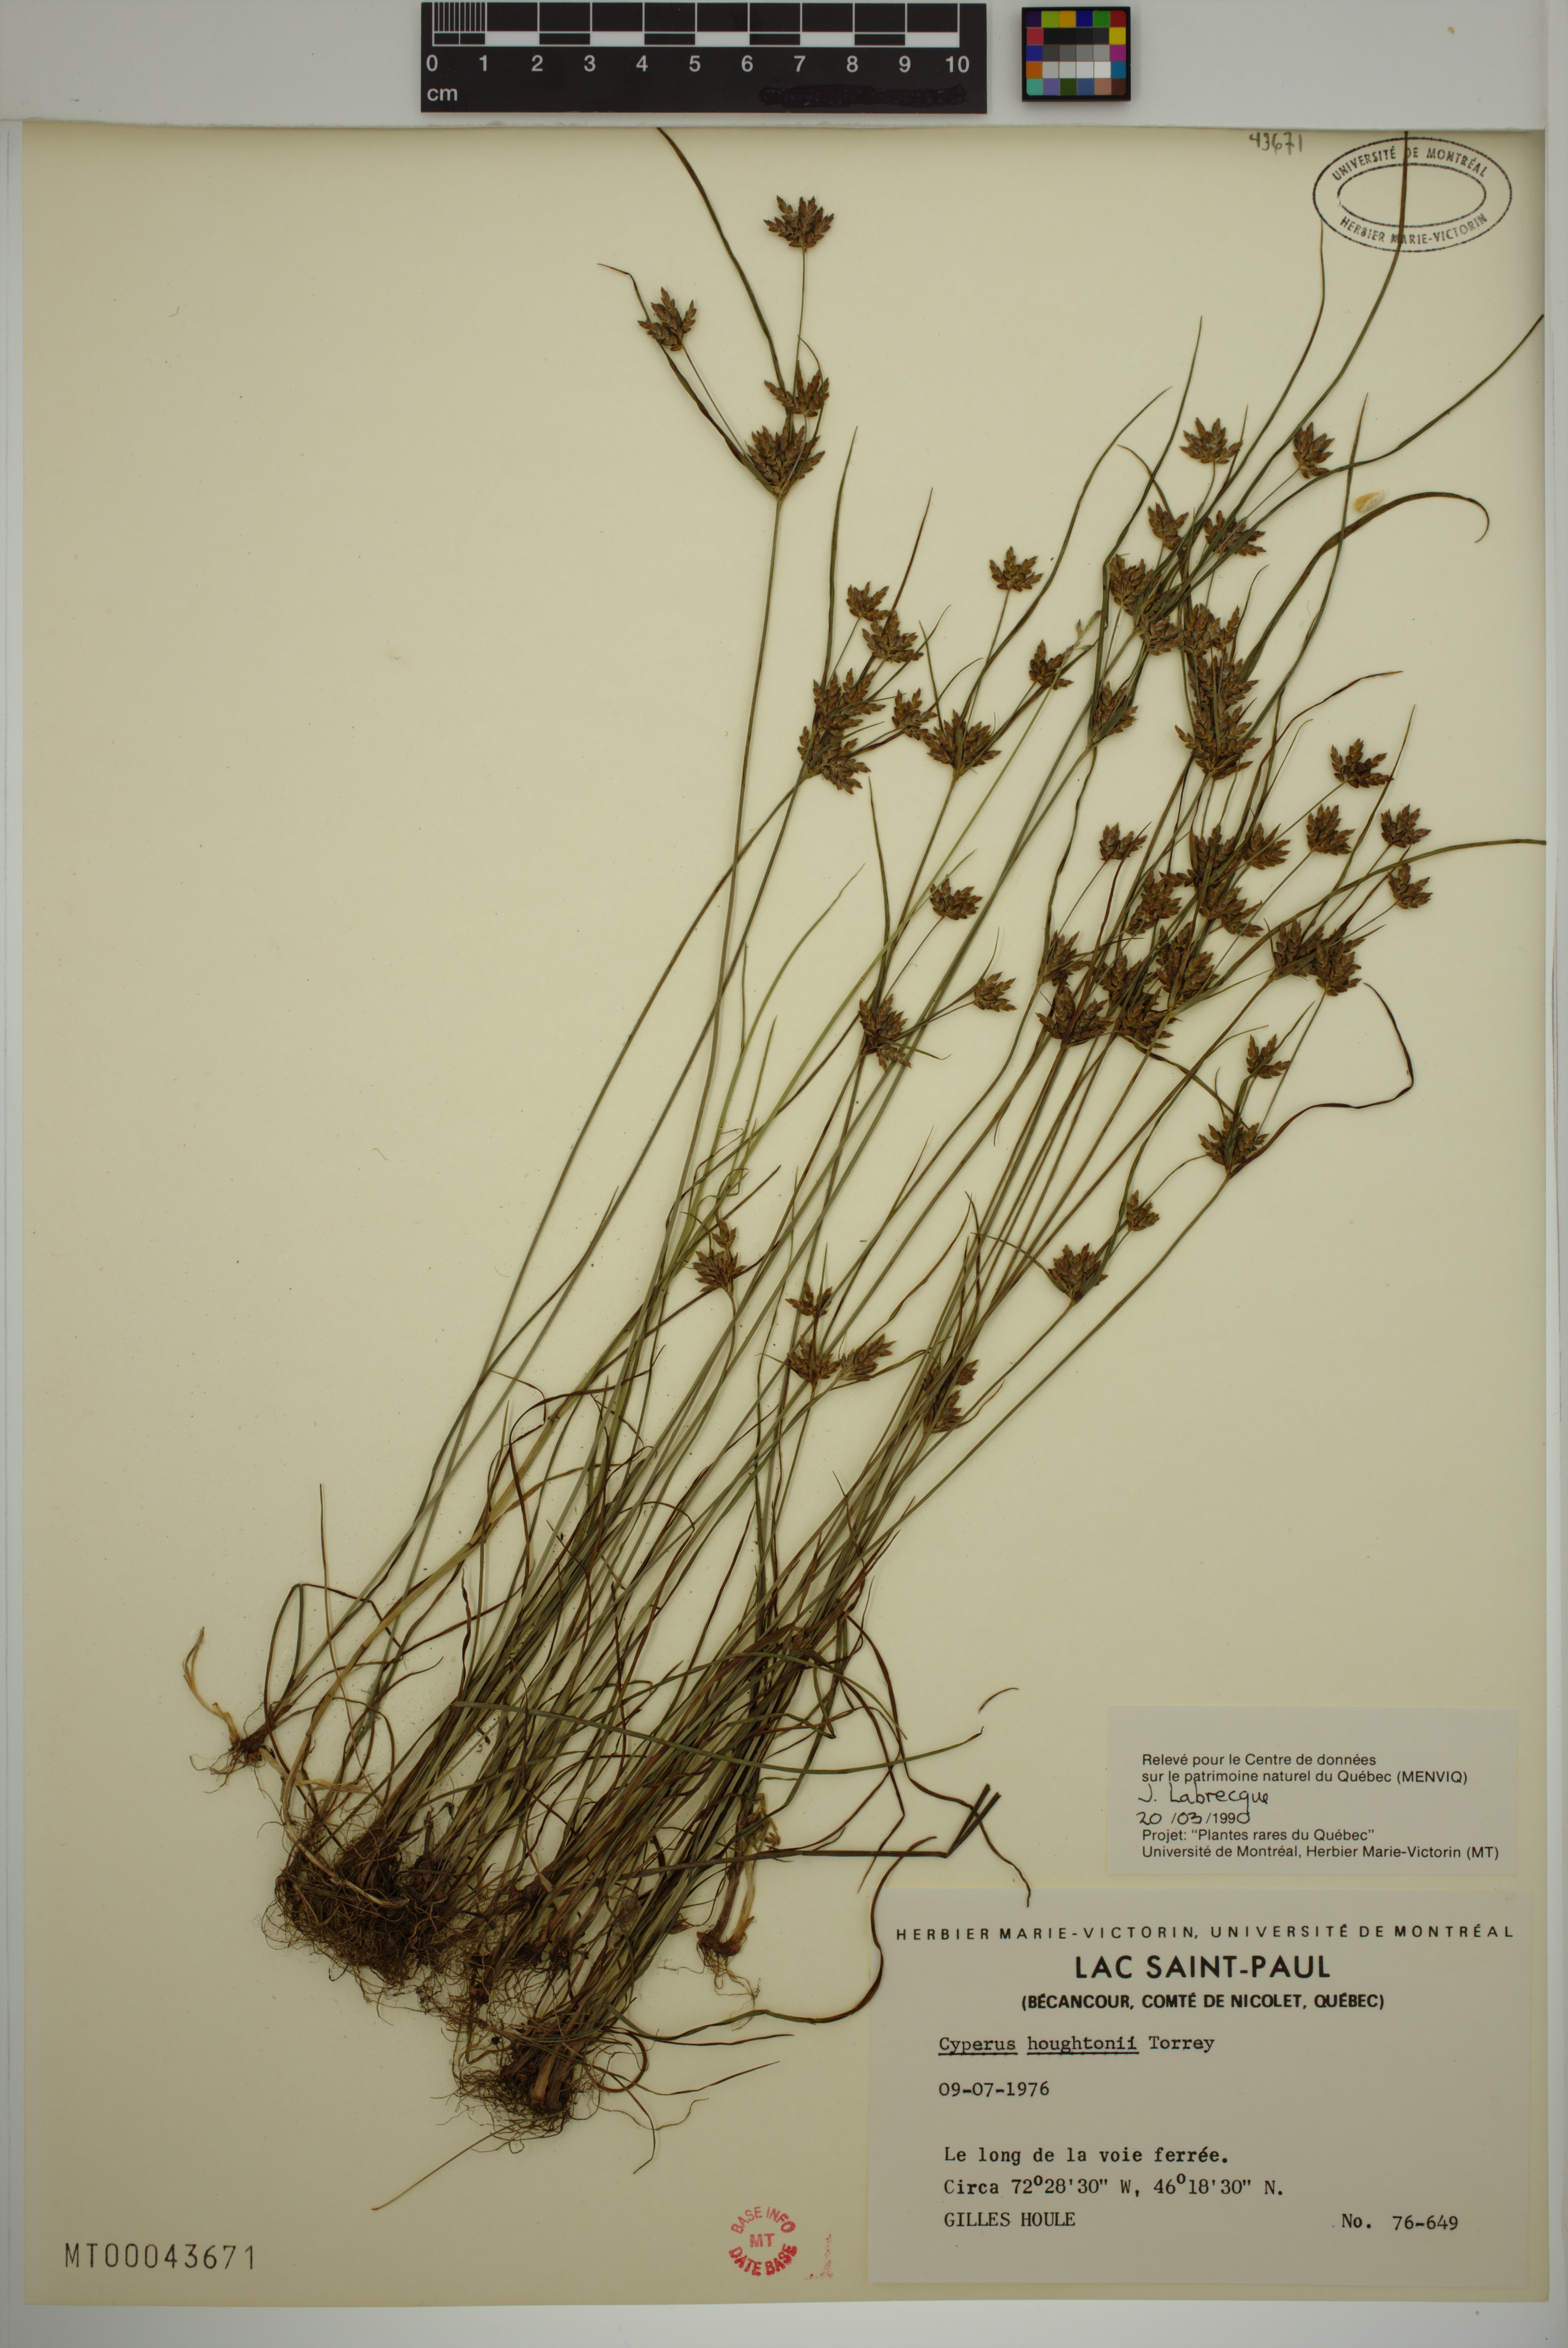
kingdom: Plantae
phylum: Tracheophyta
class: Liliopsida
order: Poales
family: Cyperaceae
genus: Cyperus
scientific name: Cyperus houghtonii
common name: Houghton's cyperus
